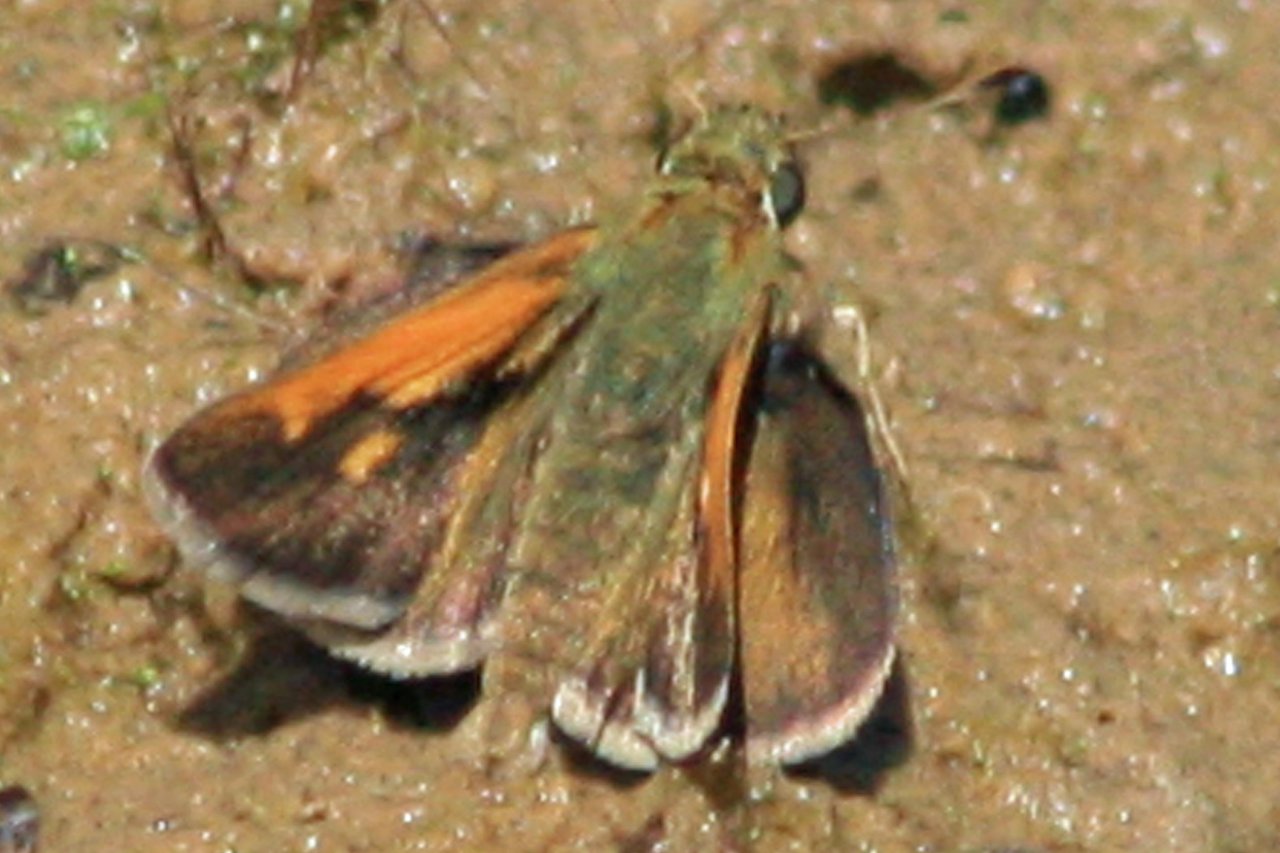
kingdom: Animalia
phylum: Arthropoda
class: Insecta
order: Lepidoptera
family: Hesperiidae
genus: Polites
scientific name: Polites themistocles
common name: Tawny-edged Skipper
